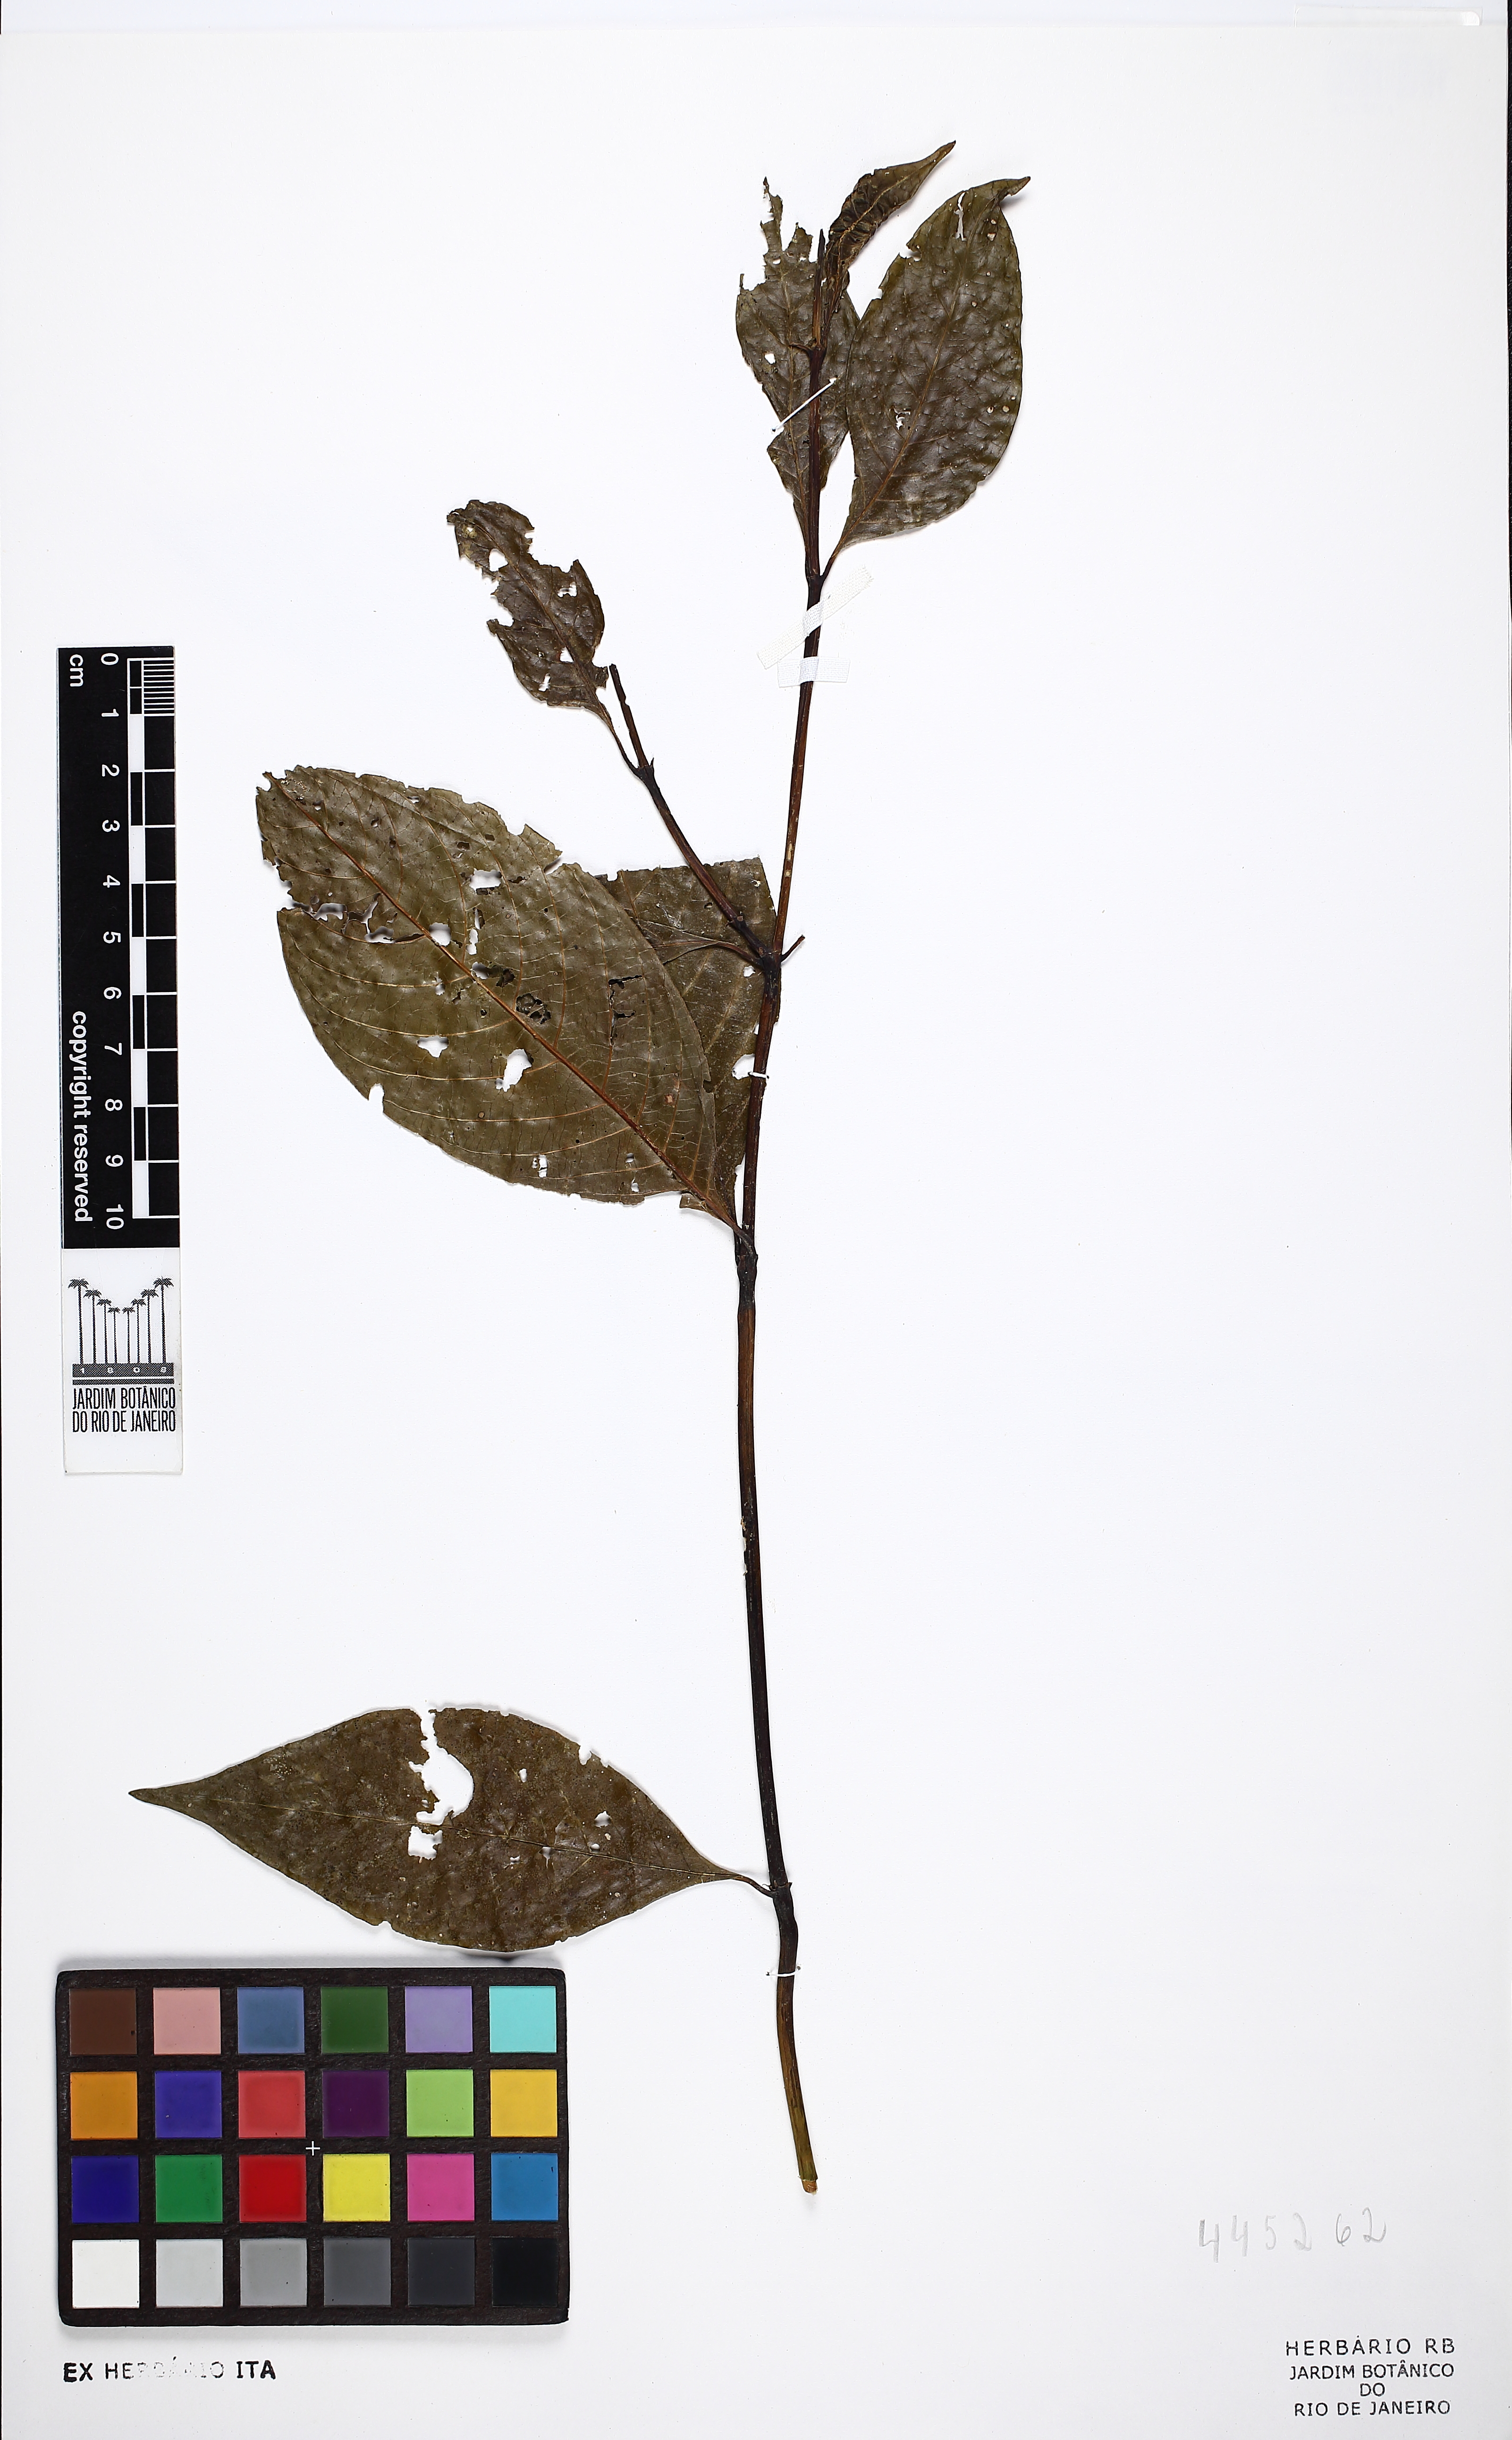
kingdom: Plantae
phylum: Tracheophyta
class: Magnoliopsida
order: Gentianales
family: Rubiaceae
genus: Palicourea
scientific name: Palicourea justiciifolia
